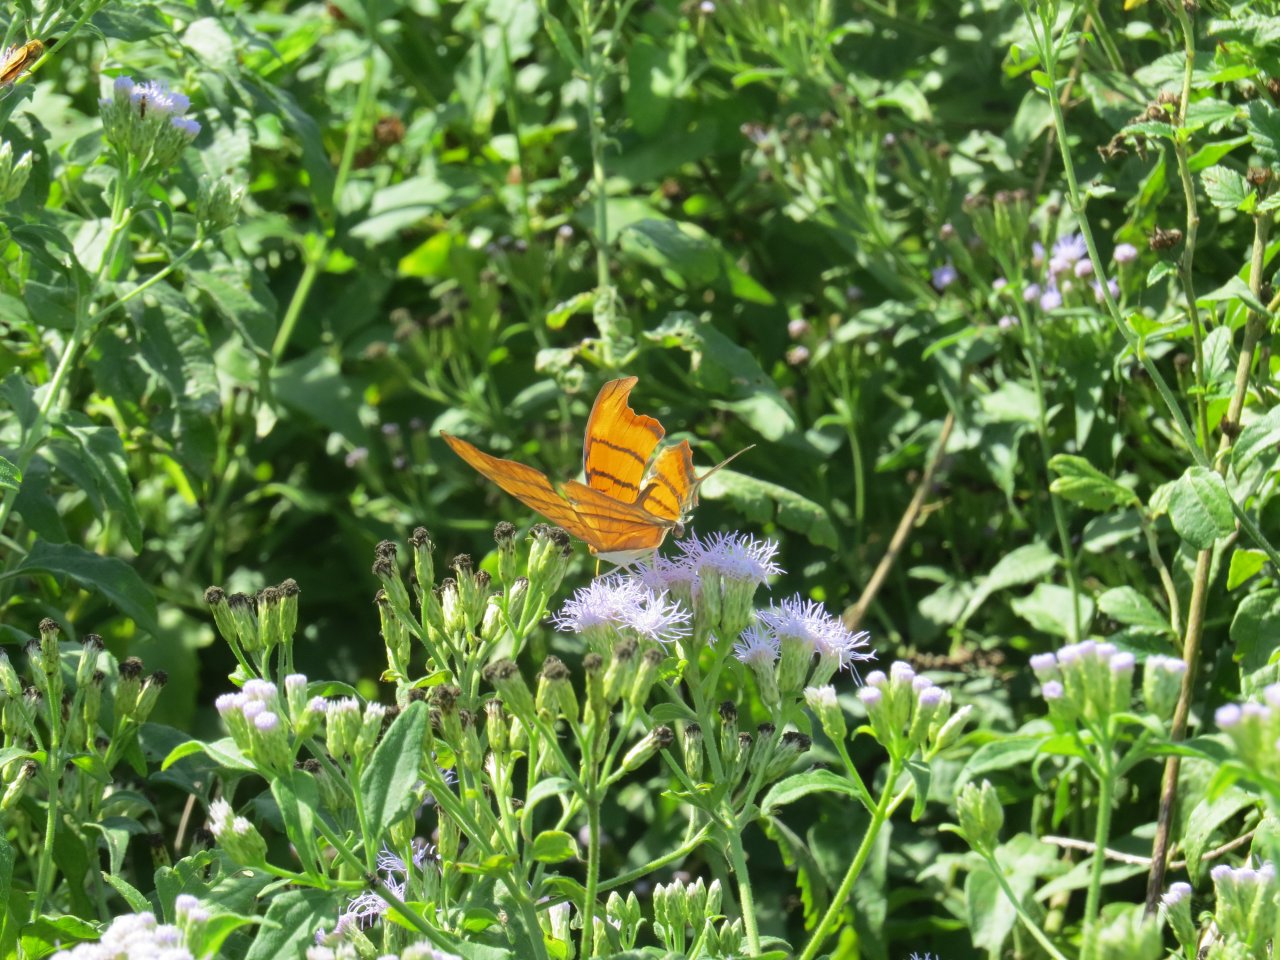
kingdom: Animalia
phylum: Arthropoda
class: Insecta
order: Lepidoptera
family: Nymphalidae
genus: Marpesia
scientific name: Marpesia petreus
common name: Ruddy Daggerwing
